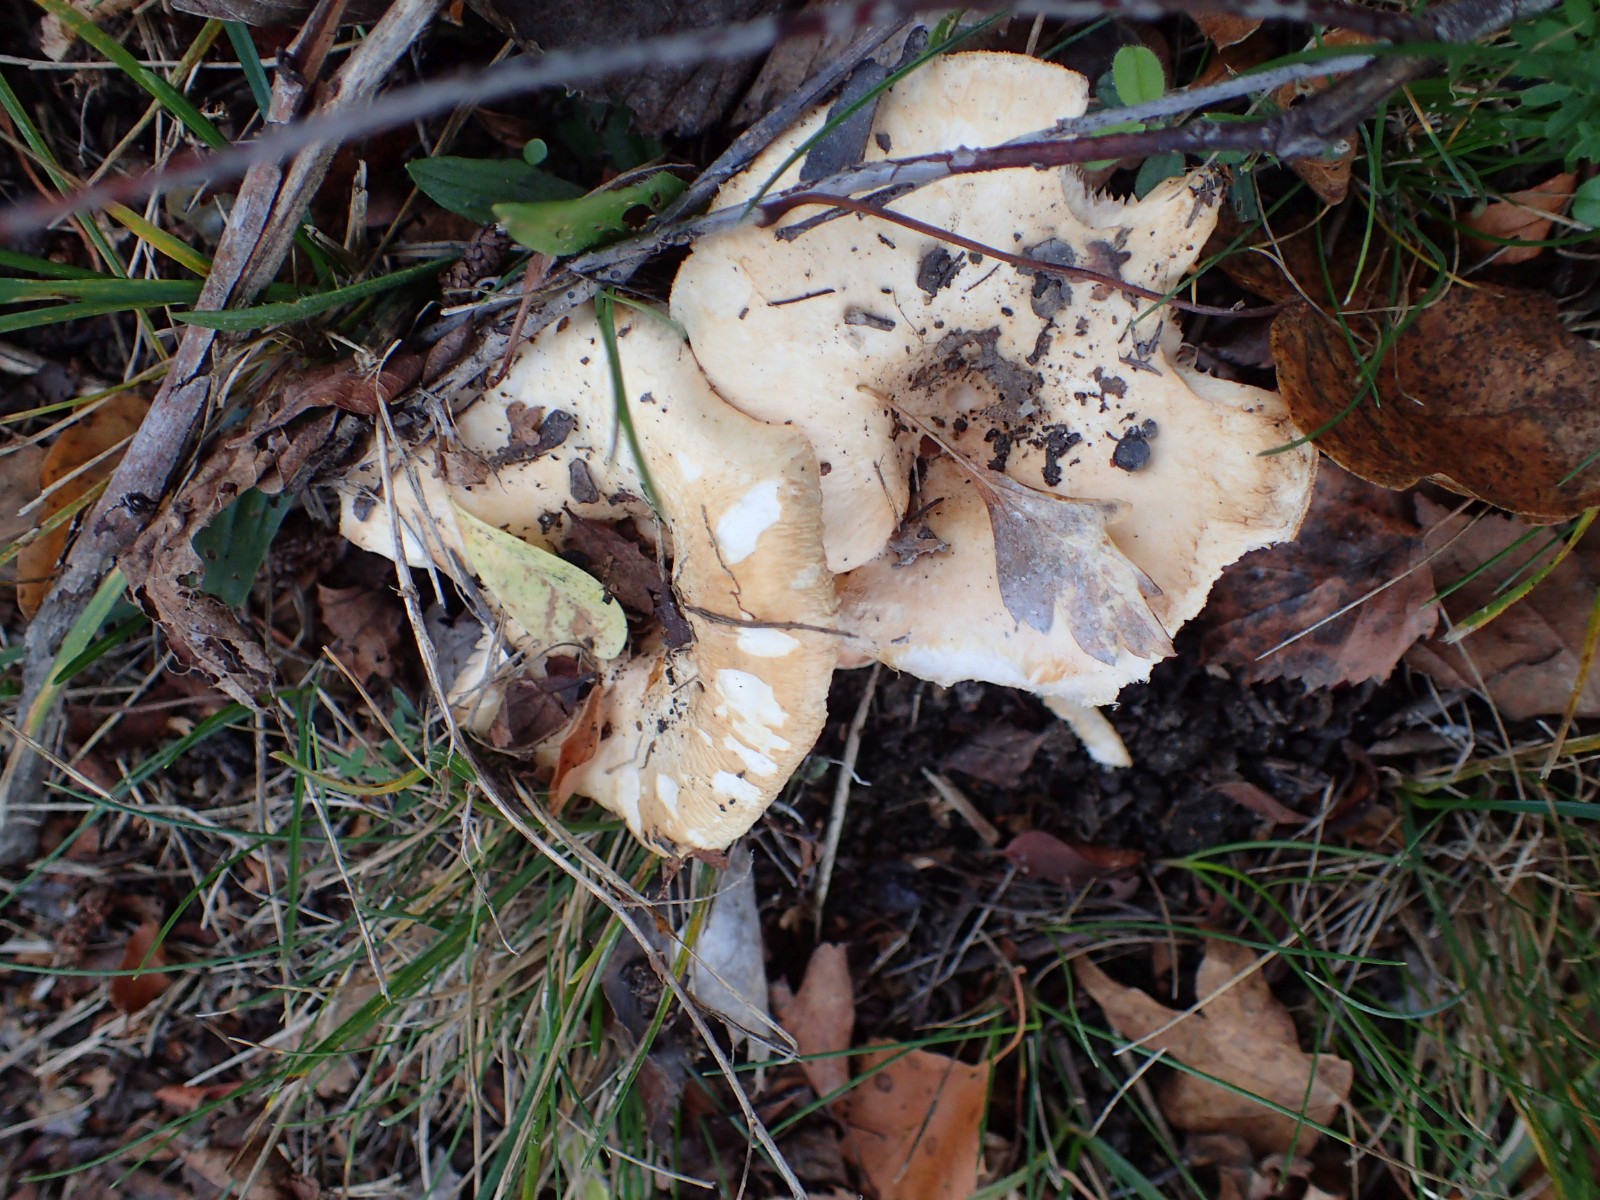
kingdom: Fungi
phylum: Basidiomycota
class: Agaricomycetes
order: Agaricales
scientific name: Agaricales
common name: champignonordenen
